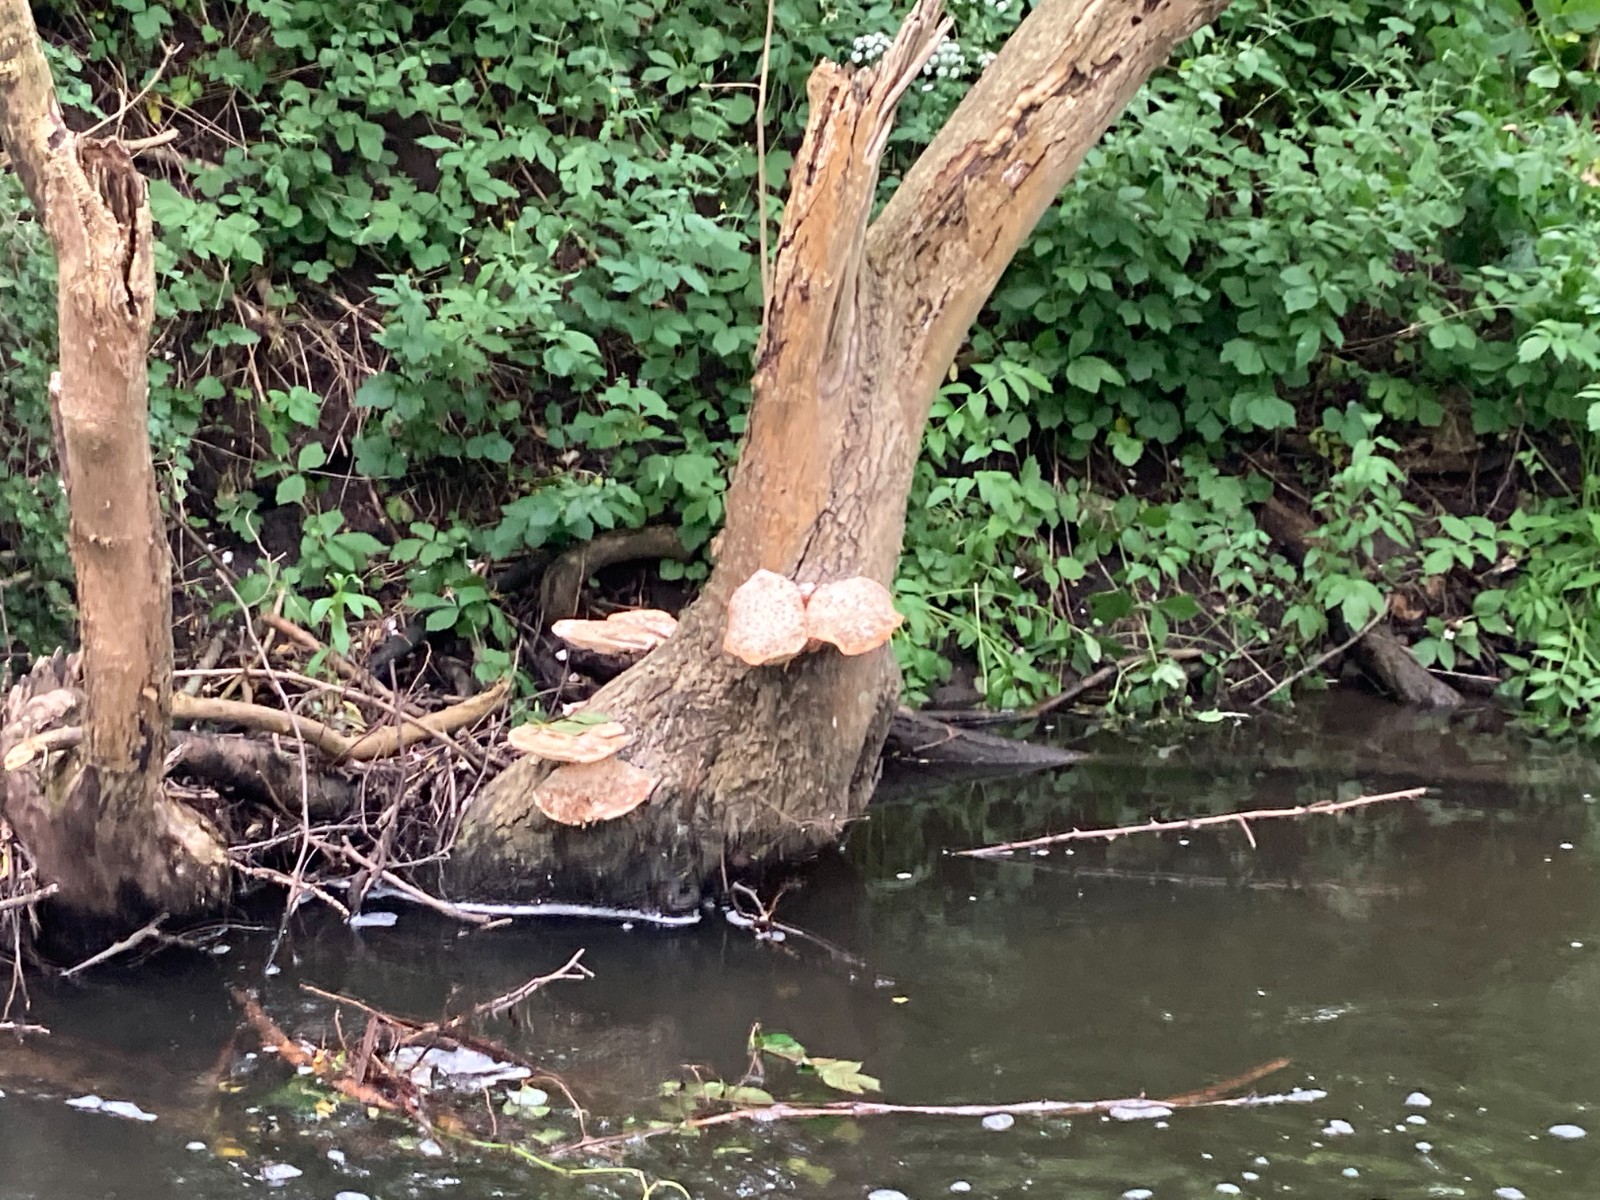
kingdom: Fungi
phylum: Basidiomycota
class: Agaricomycetes
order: Polyporales
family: Polyporaceae
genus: Cerioporus
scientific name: Cerioporus squamosus
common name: skællet stilkporesvamp
